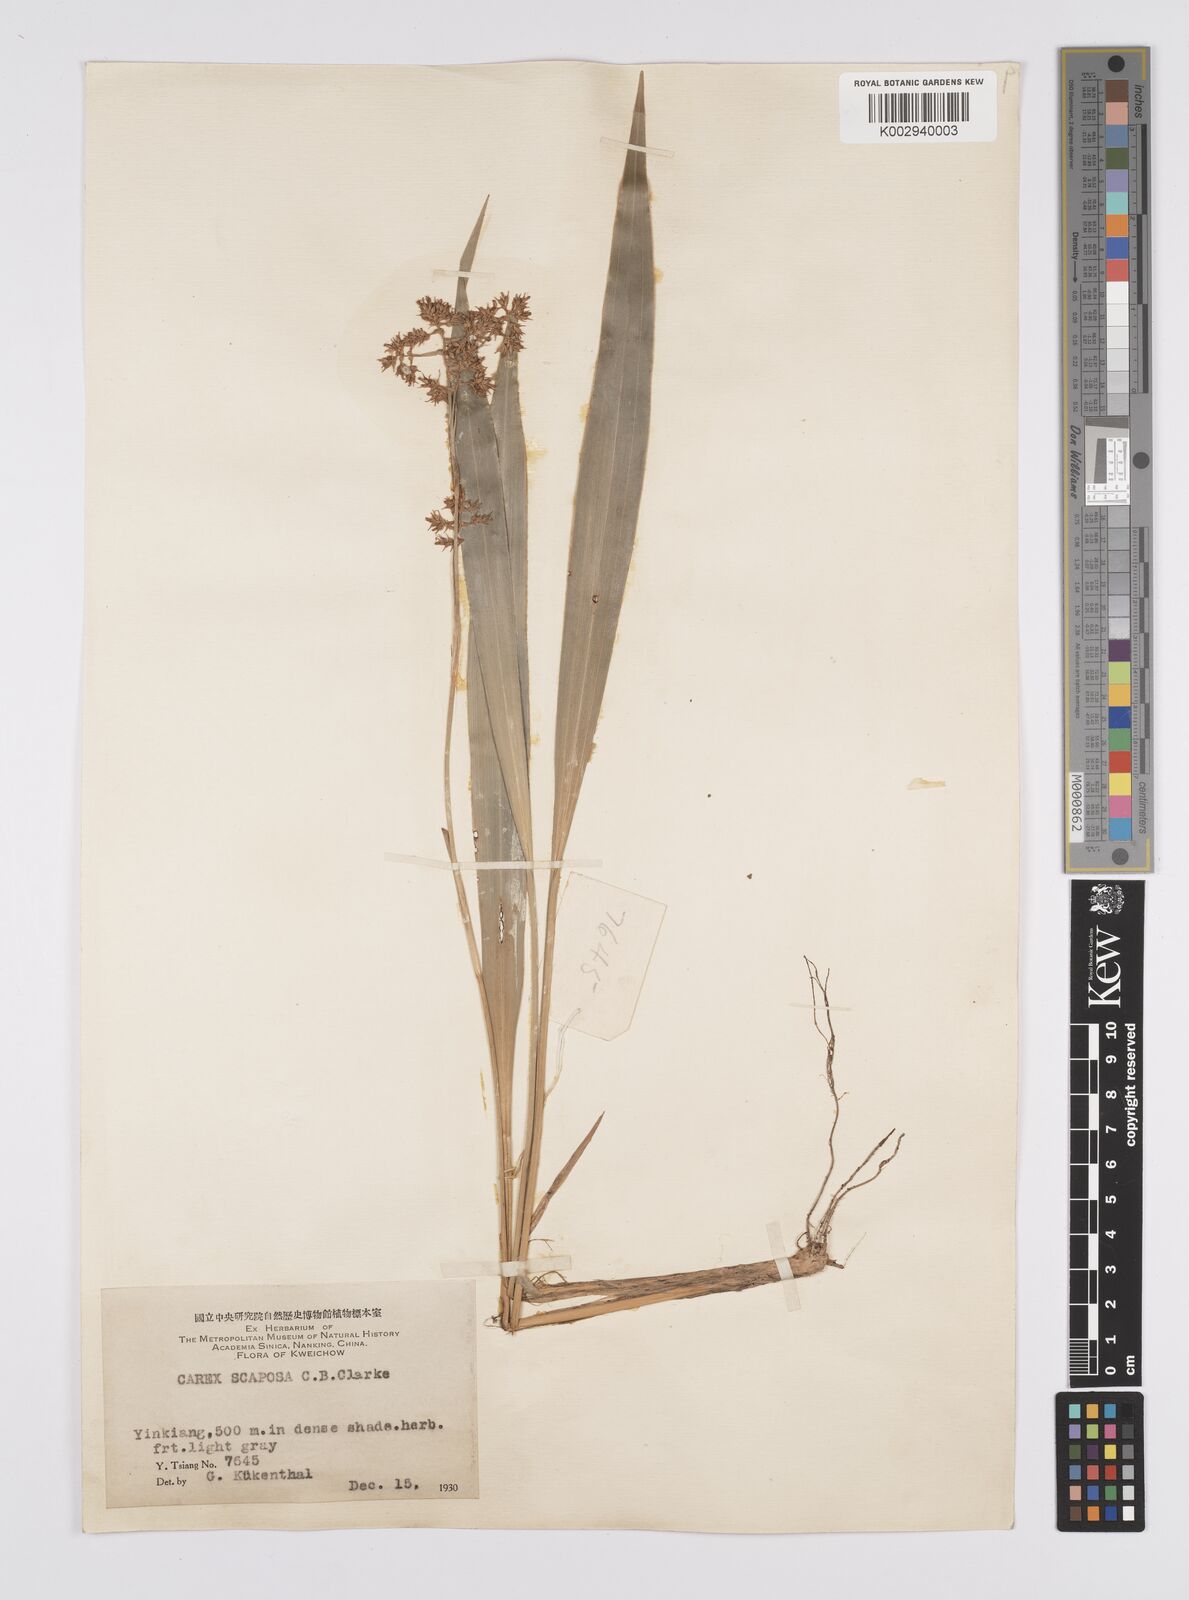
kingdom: Plantae
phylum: Tracheophyta
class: Liliopsida
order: Poales
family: Cyperaceae
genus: Carex
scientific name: Carex scaposa
